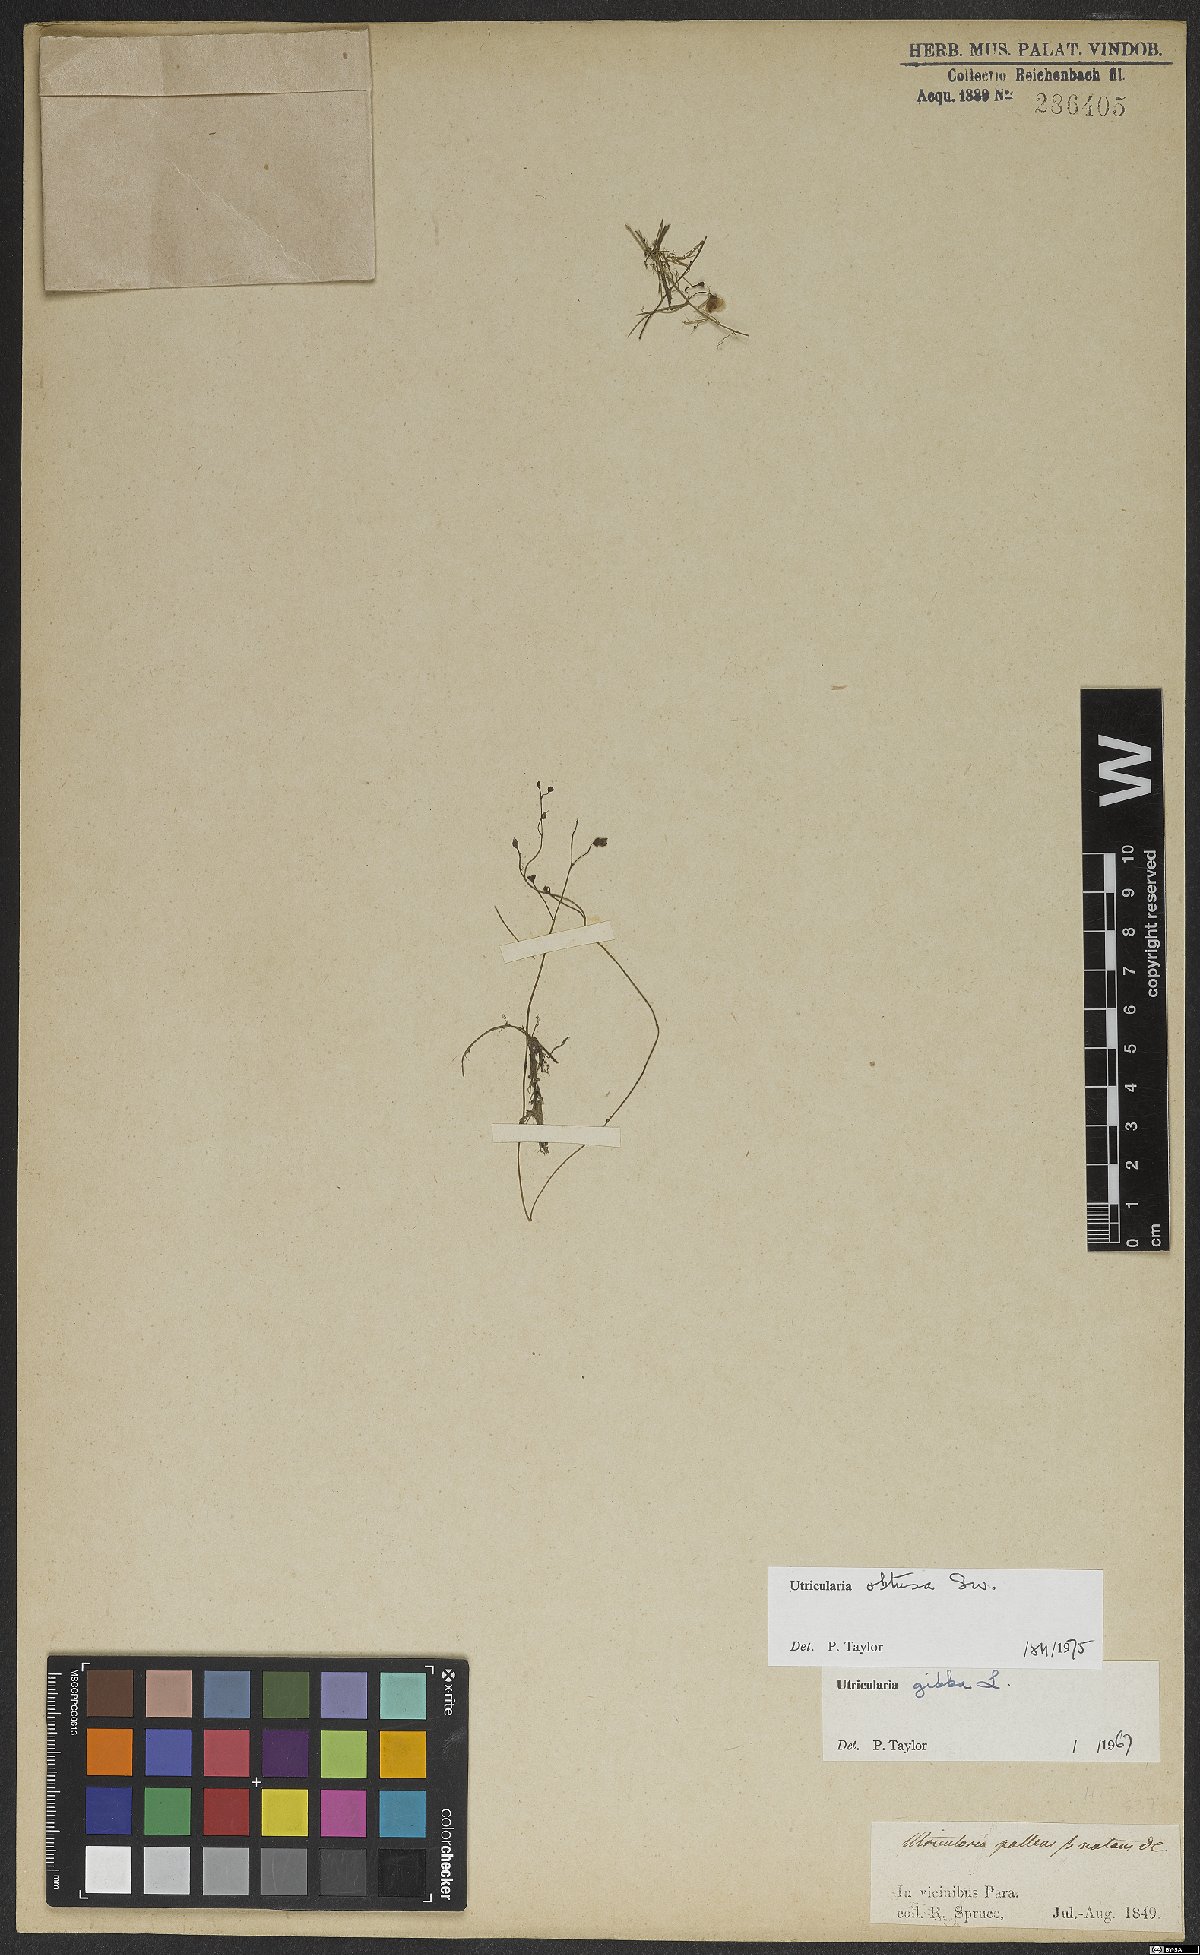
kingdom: Plantae
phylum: Tracheophyta
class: Magnoliopsida
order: Lamiales
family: Lentibulariaceae
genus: Utricularia
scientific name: Utricularia gibba
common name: Humped bladderwort
